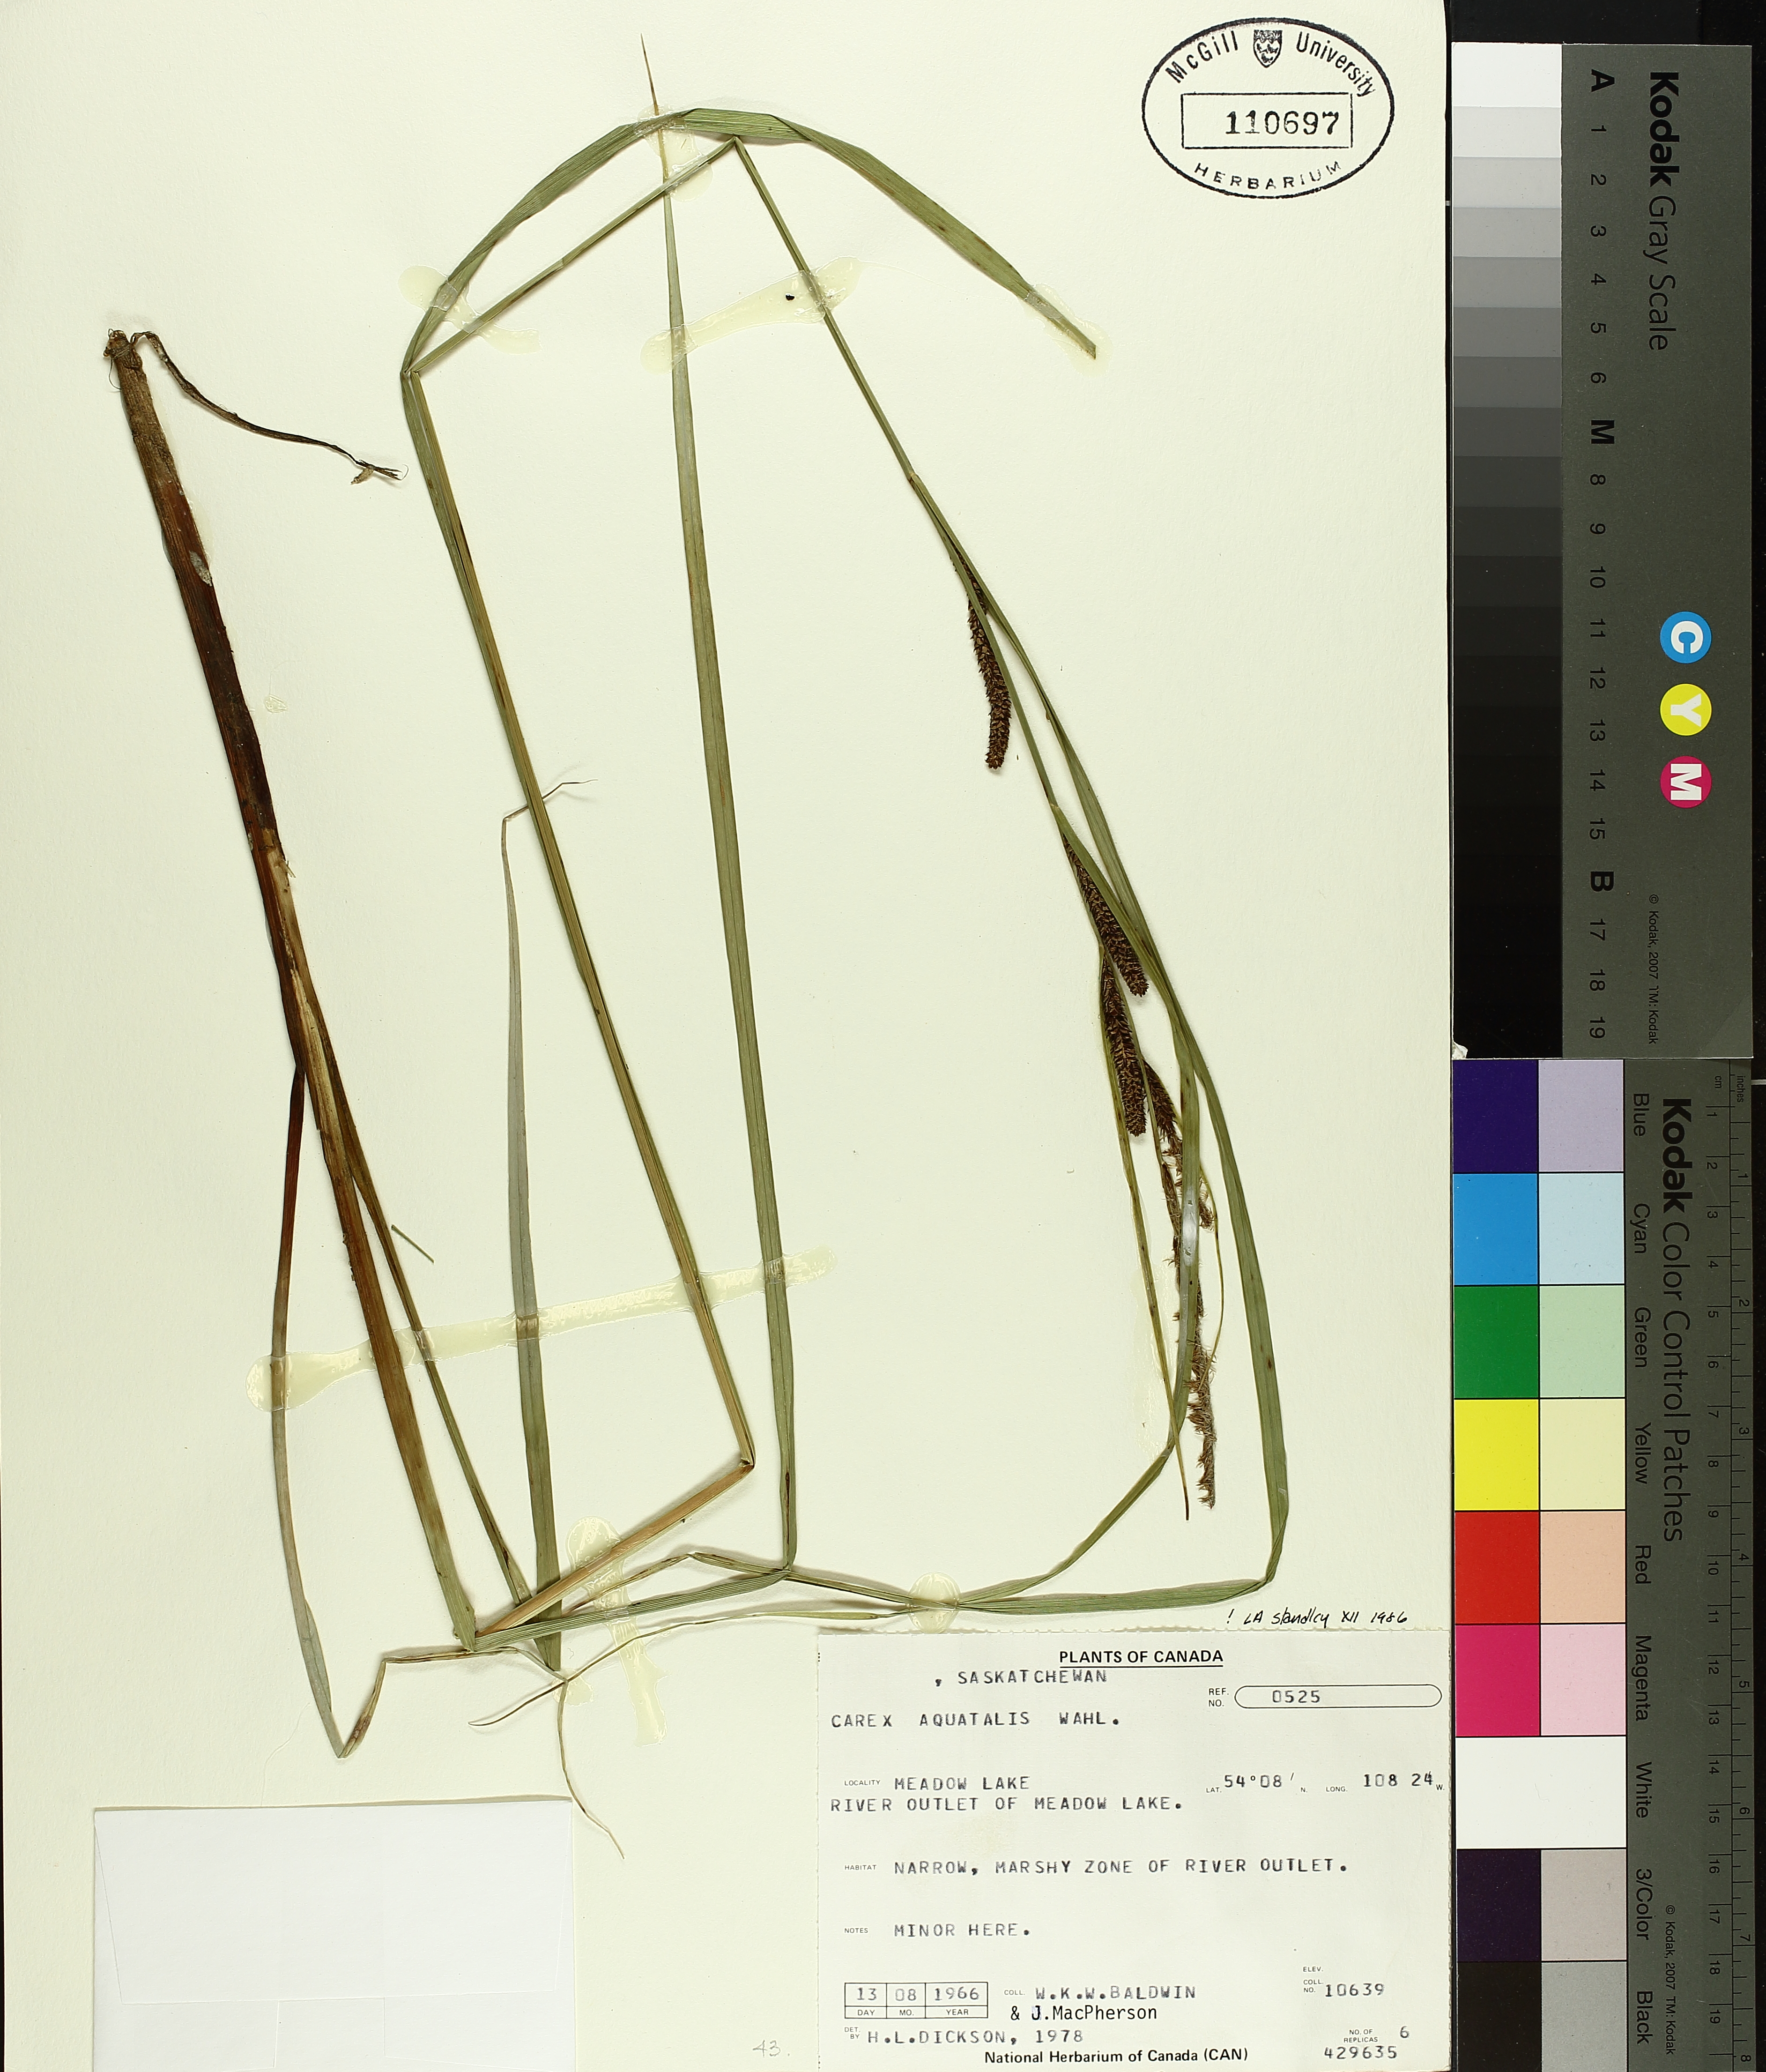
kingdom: Plantae
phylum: Tracheophyta
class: Liliopsida
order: Poales
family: Cyperaceae
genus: Carex
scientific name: Carex aquatilis
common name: Water sedge
